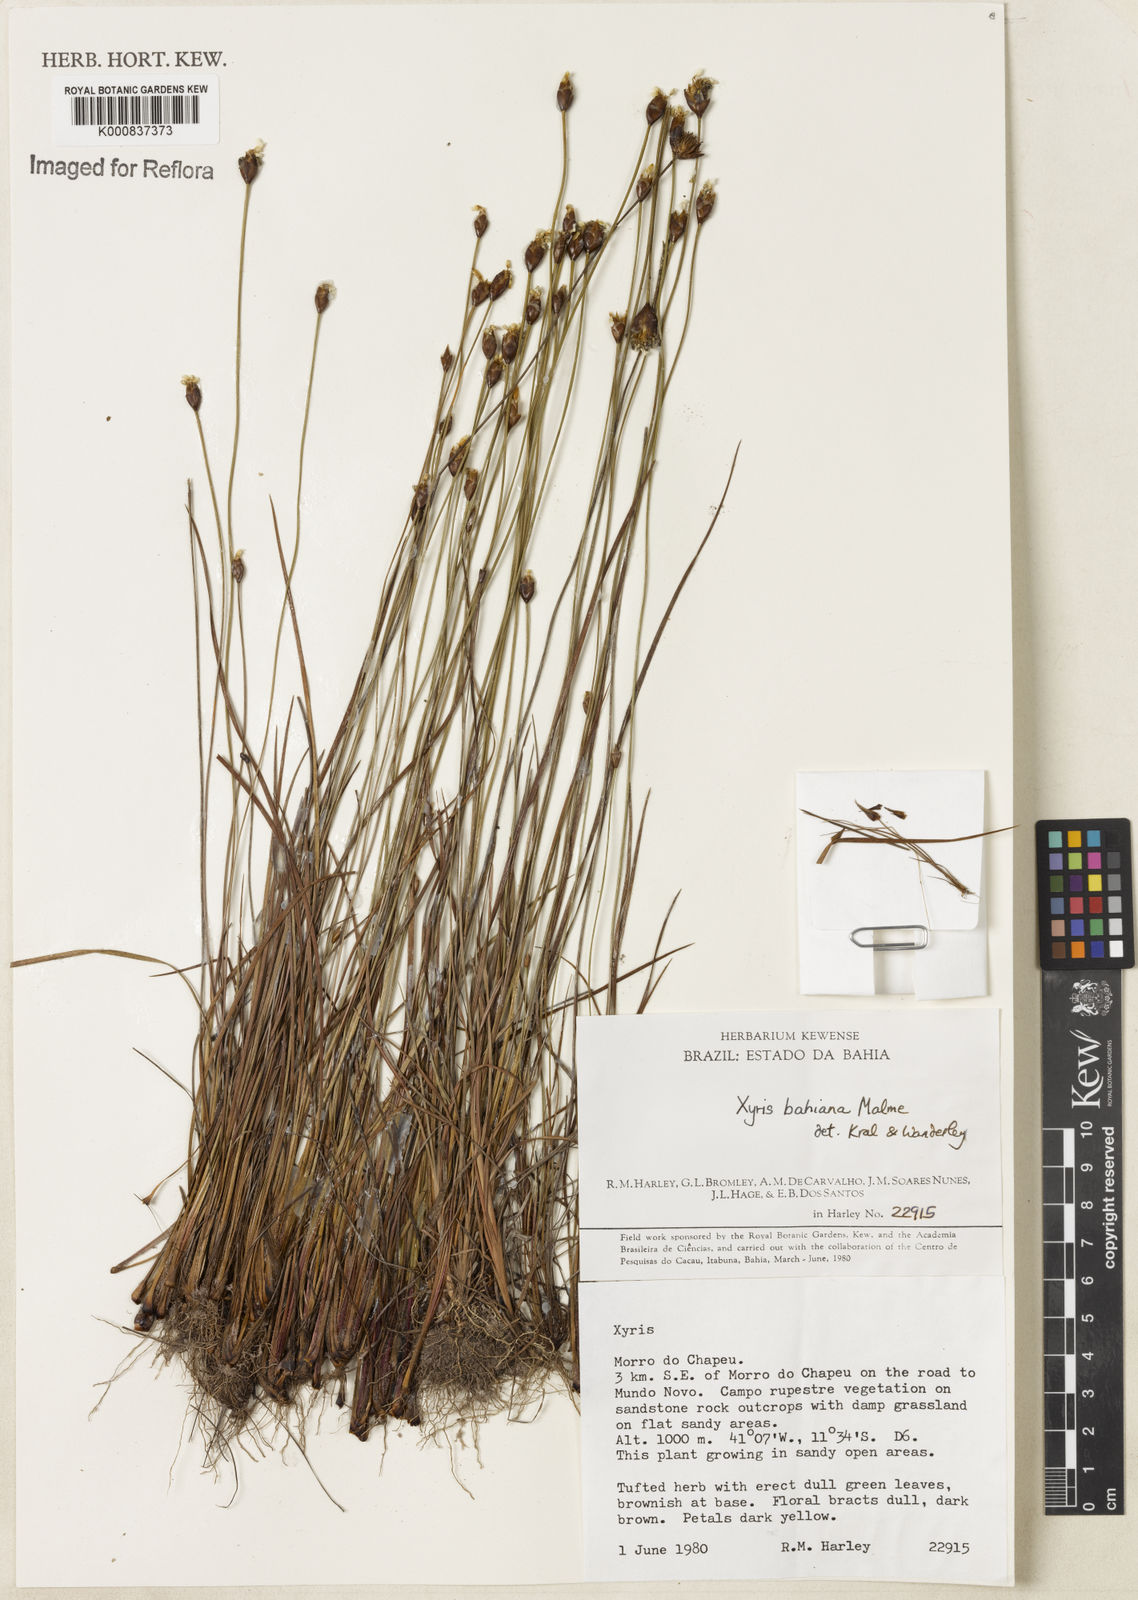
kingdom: Plantae
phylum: Tracheophyta
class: Liliopsida
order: Poales
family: Xyridaceae
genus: Xyris
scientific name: Xyris bahiana
